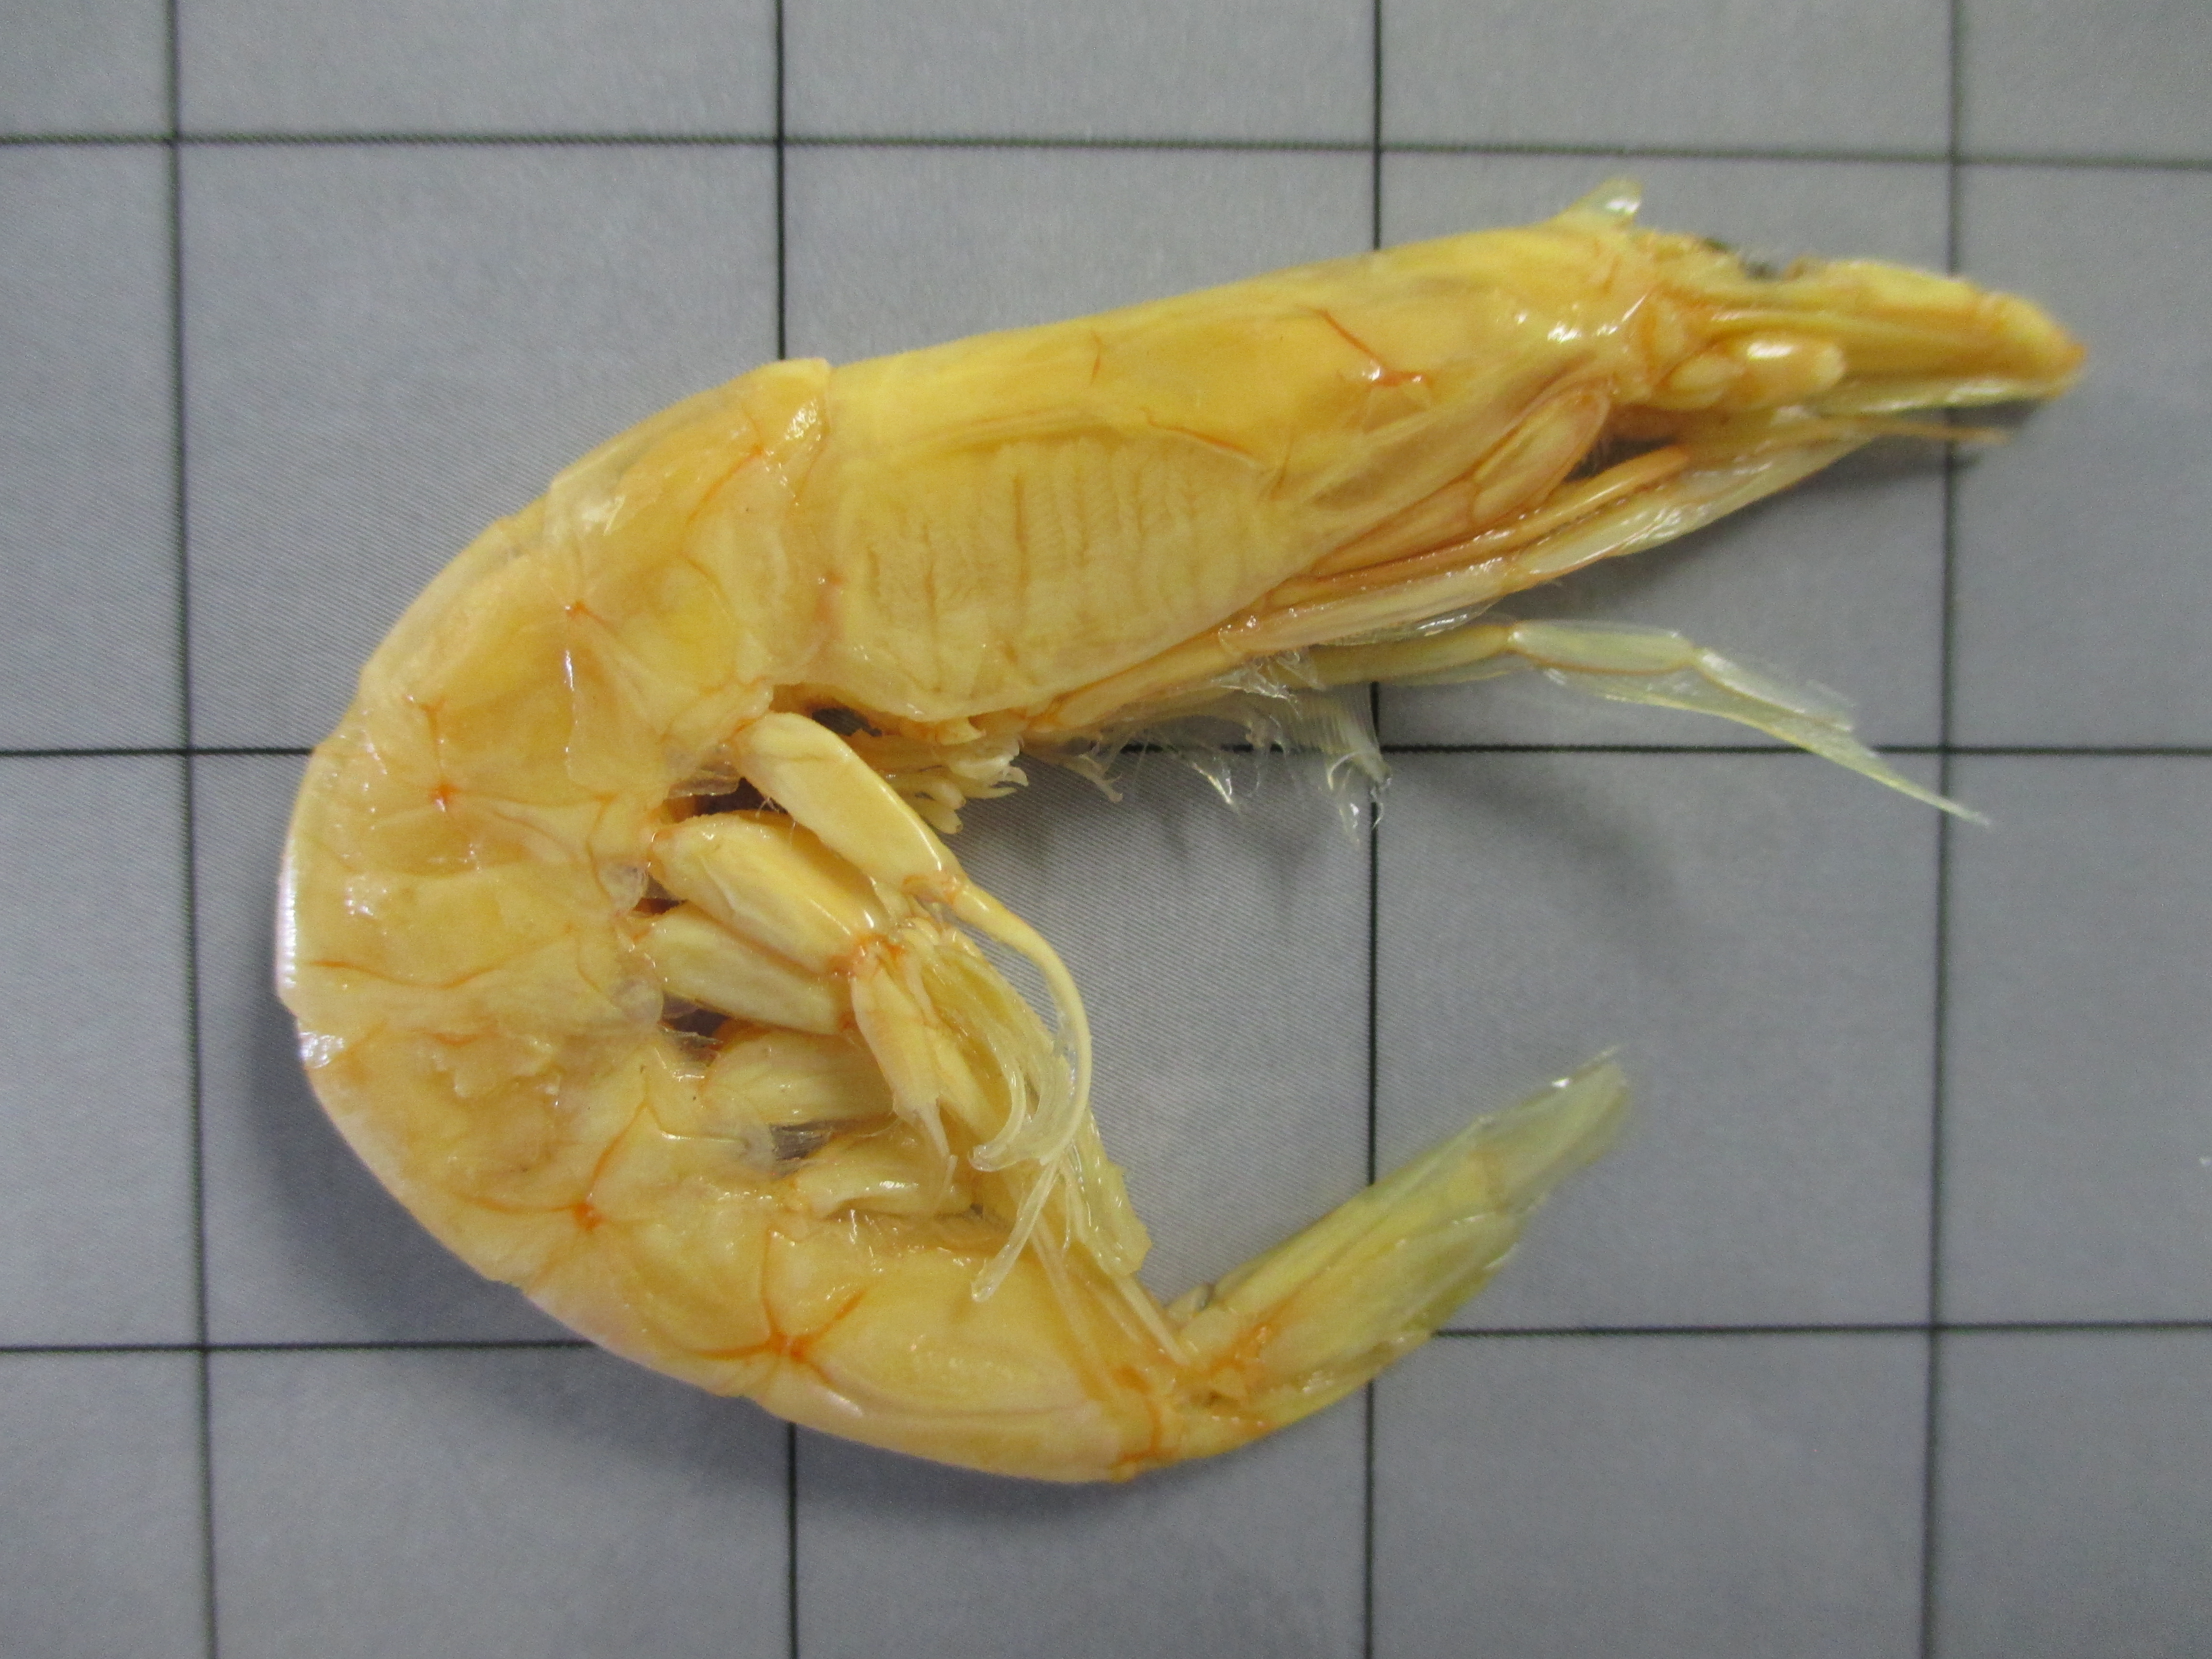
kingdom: Animalia
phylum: Arthropoda
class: Malacostraca
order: Decapoda
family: Pasiphaeidae
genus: Pasiphaea
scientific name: Pasiphaea
